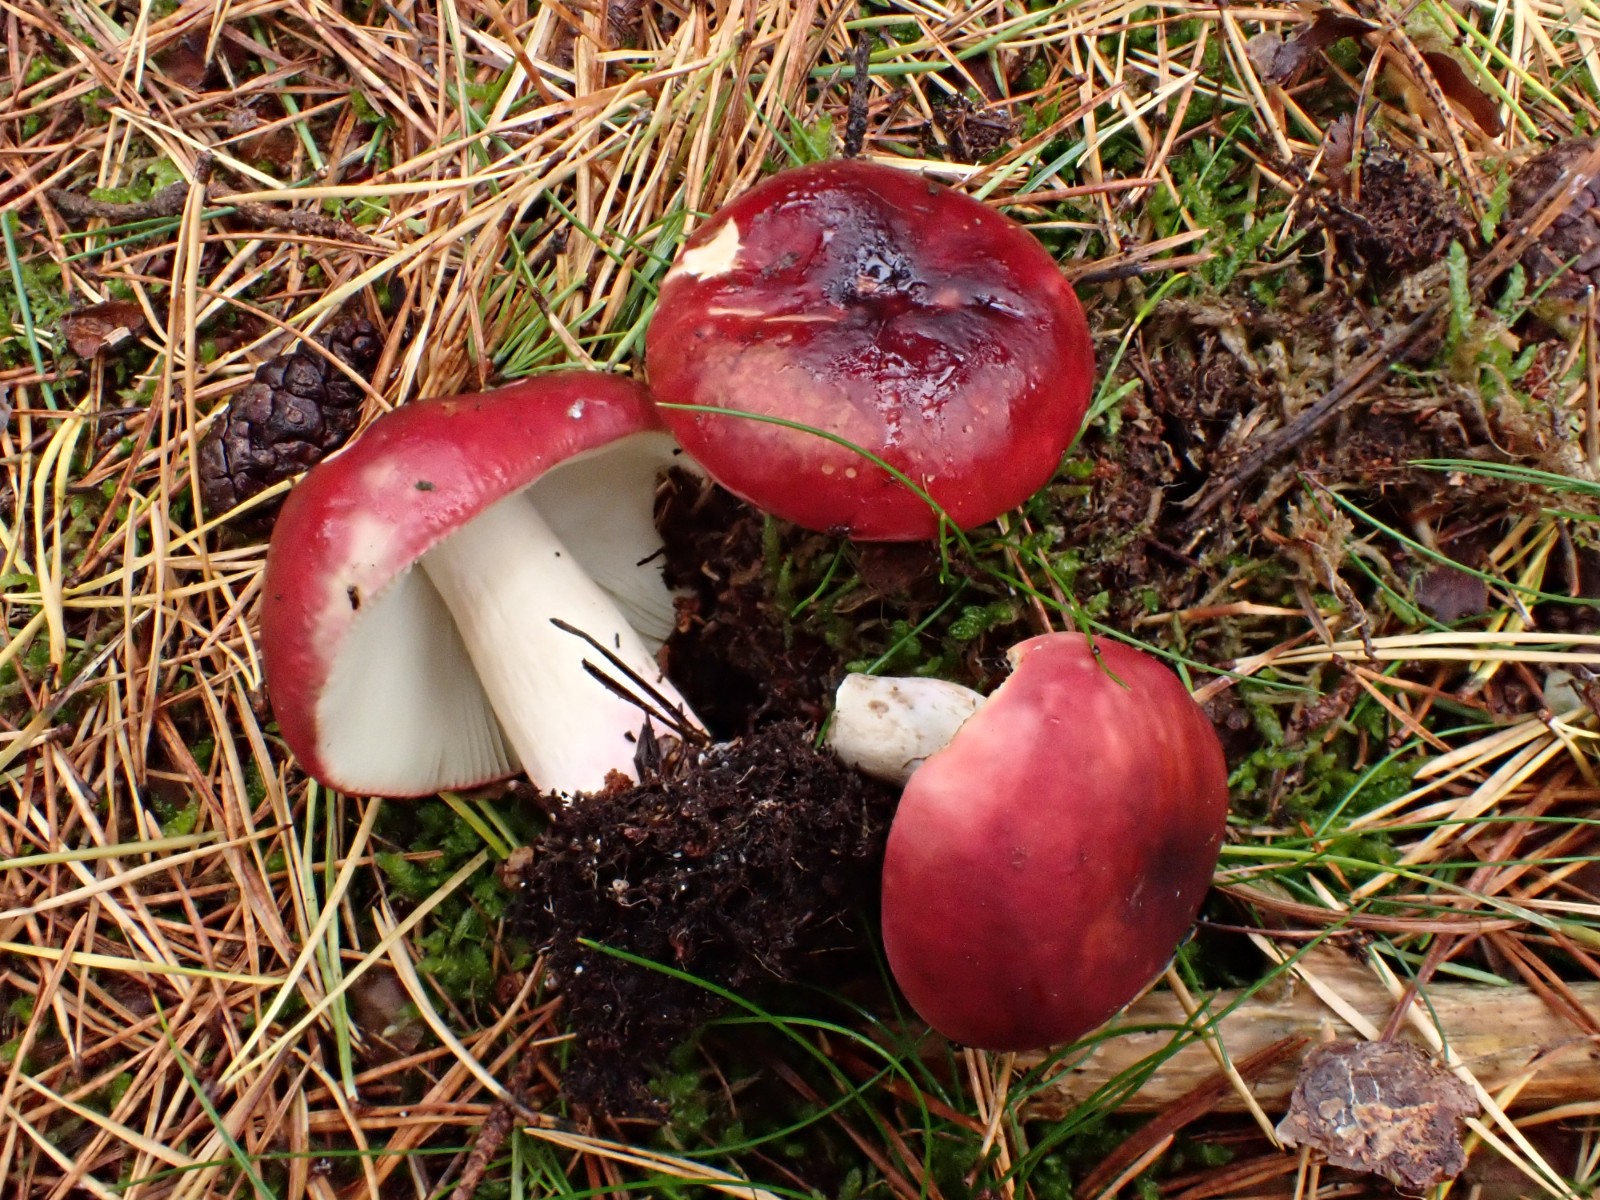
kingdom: Fungi
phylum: Basidiomycota
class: Agaricomycetes
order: Russulales
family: Russulaceae
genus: Russula
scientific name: Russula xerampelina
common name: hummer-skørhat
